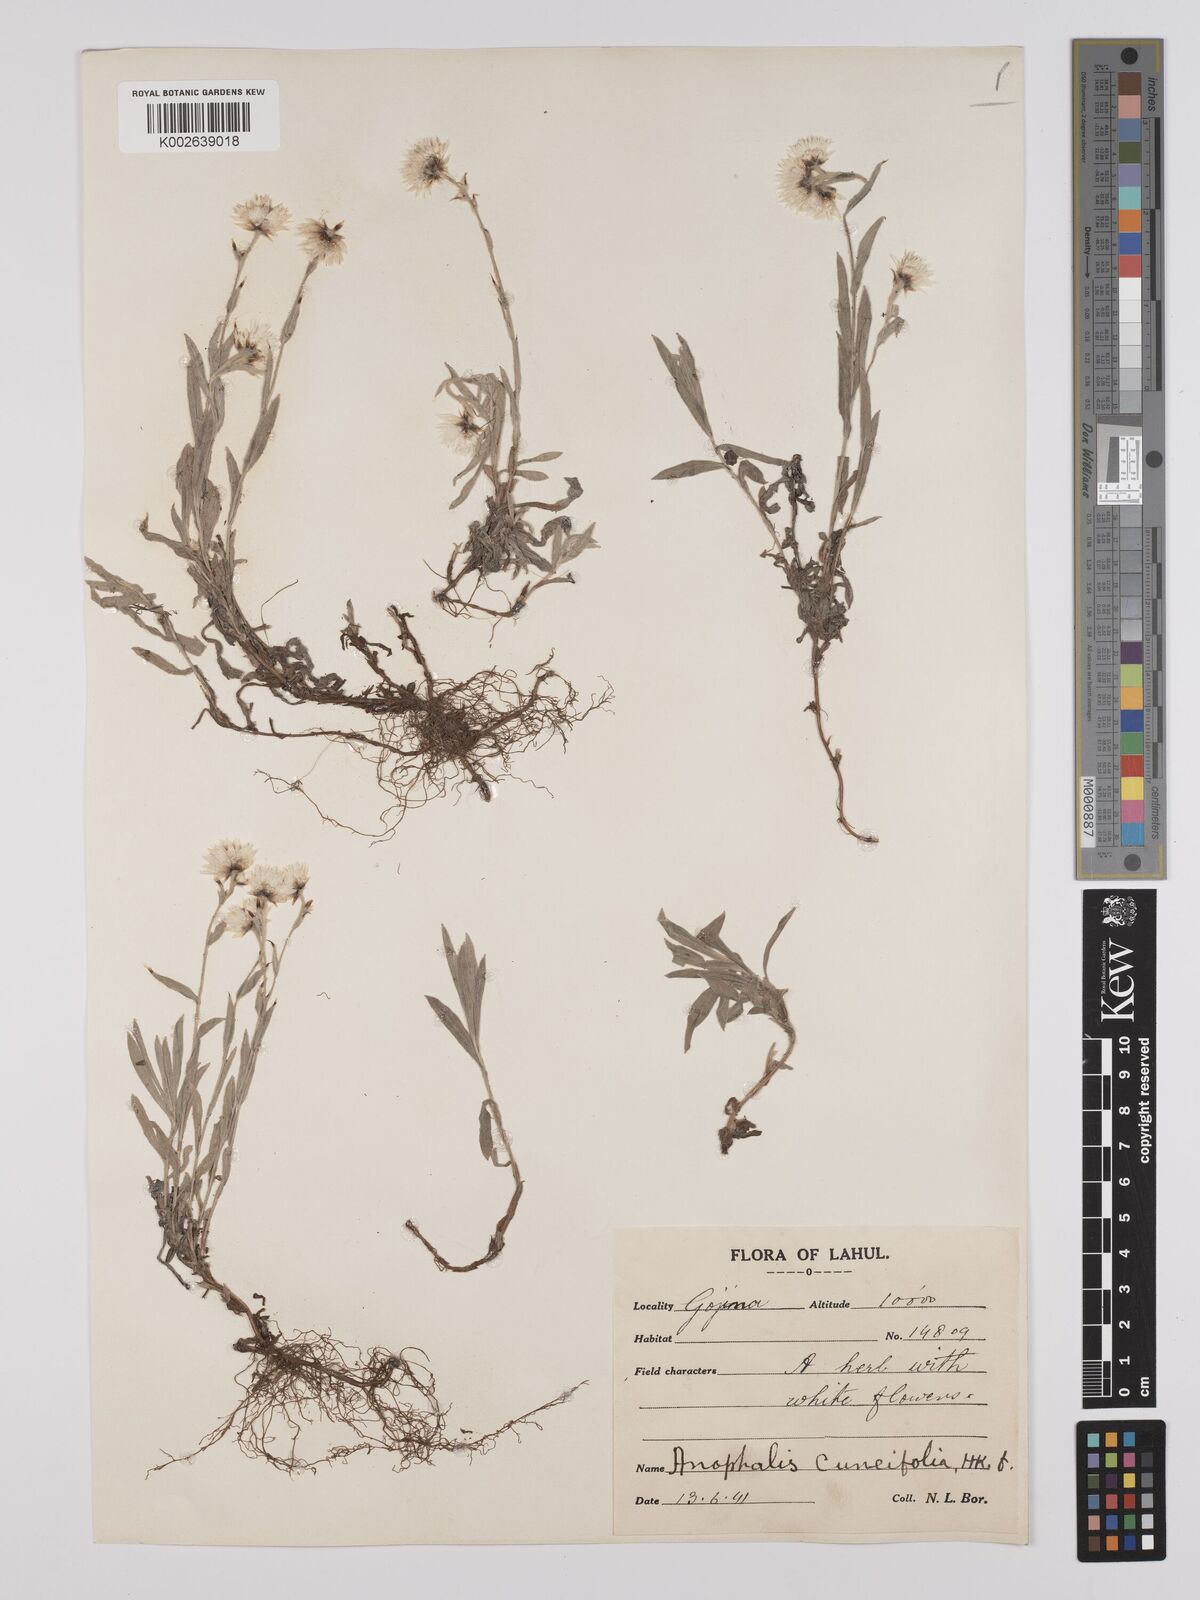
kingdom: Plantae
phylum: Tracheophyta
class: Magnoliopsida
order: Asterales
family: Asteraceae
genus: Anaphalioides
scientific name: Anaphalioides trinervis
